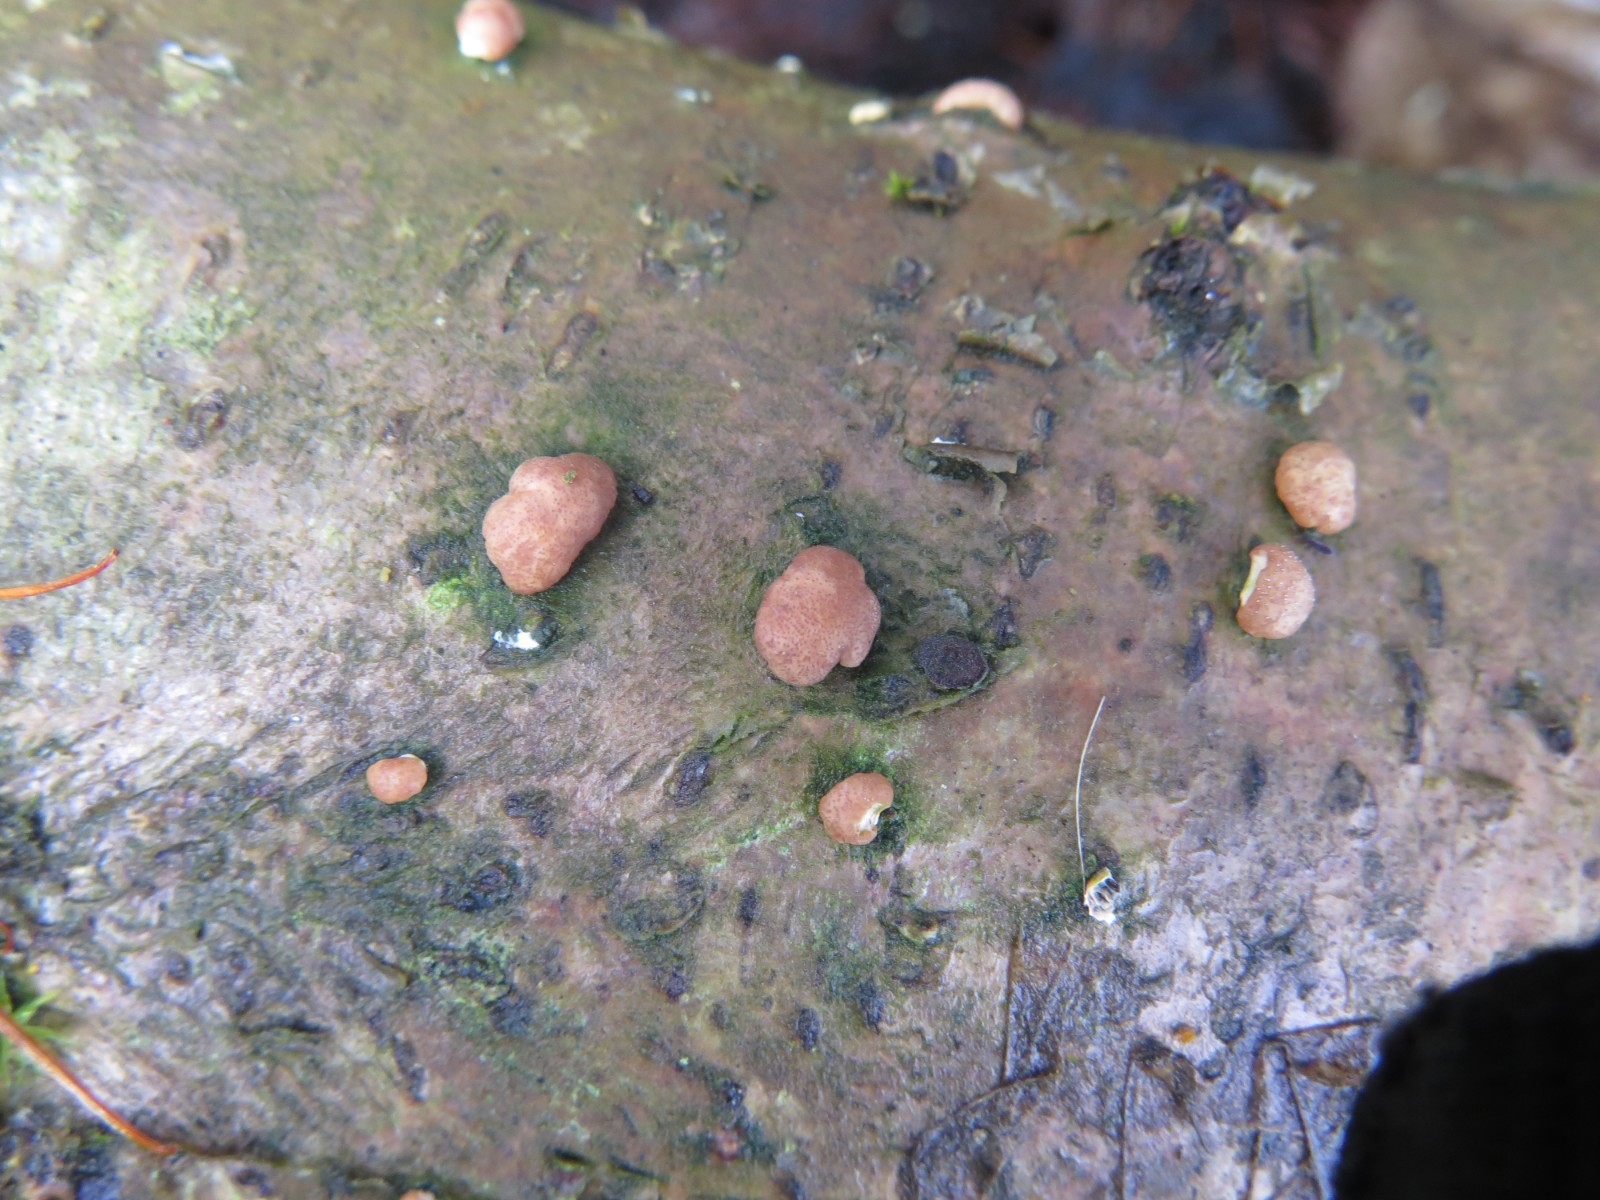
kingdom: Fungi
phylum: Ascomycota
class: Sordariomycetes
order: Hypocreales
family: Hypocreaceae
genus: Trichoderma
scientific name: Trichoderma europaeum
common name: rosabrun kødkerne
